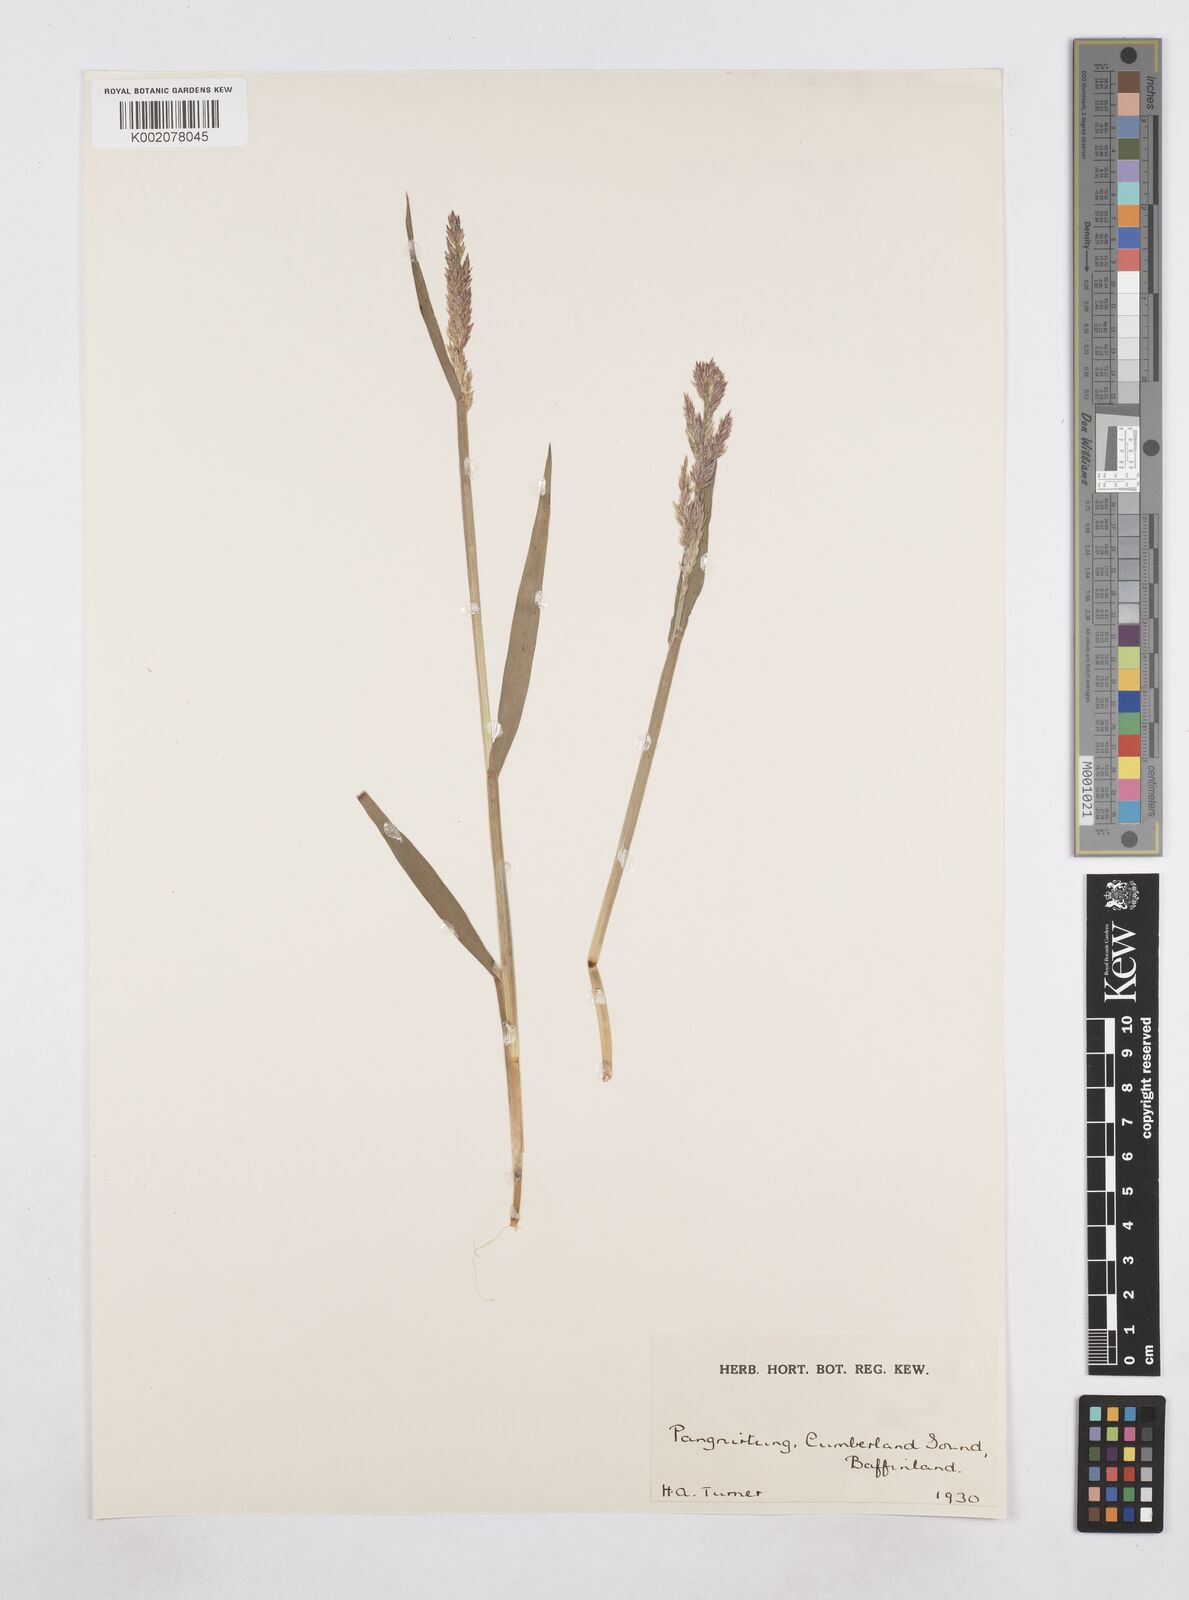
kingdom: Plantae
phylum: Tracheophyta
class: Liliopsida
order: Poales
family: Poaceae
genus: Poa
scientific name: Poa
